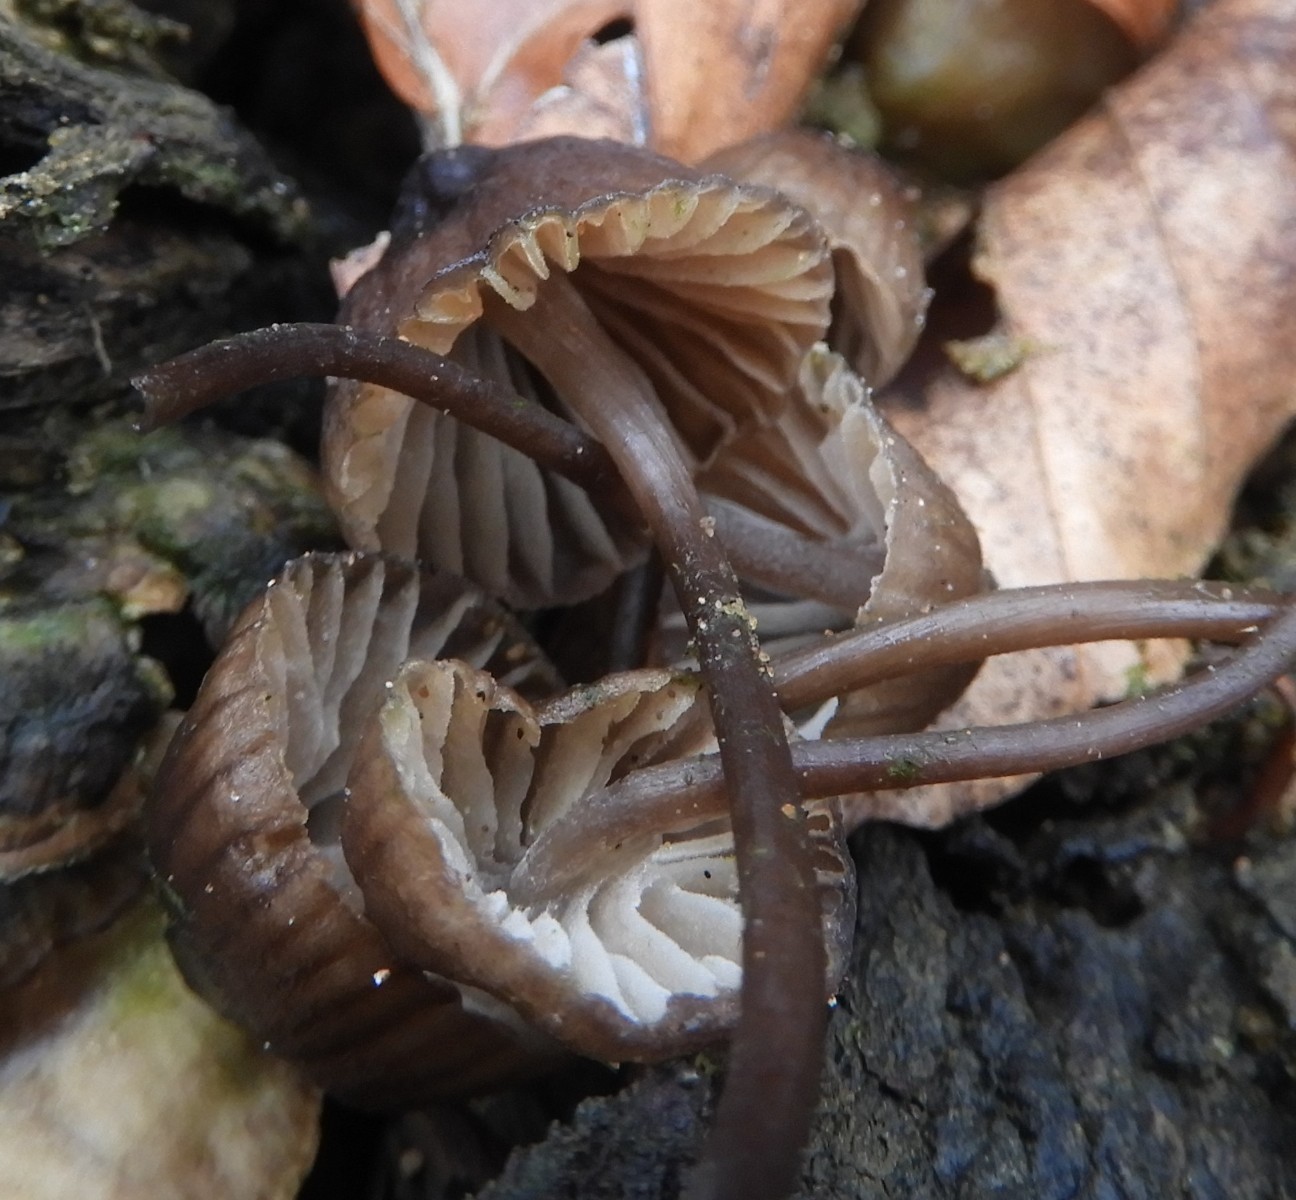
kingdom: Fungi
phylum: Basidiomycota
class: Agaricomycetes
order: Agaricales
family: Mycenaceae
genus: Mycena
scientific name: Mycena stipata
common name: stinkende huesvamp
